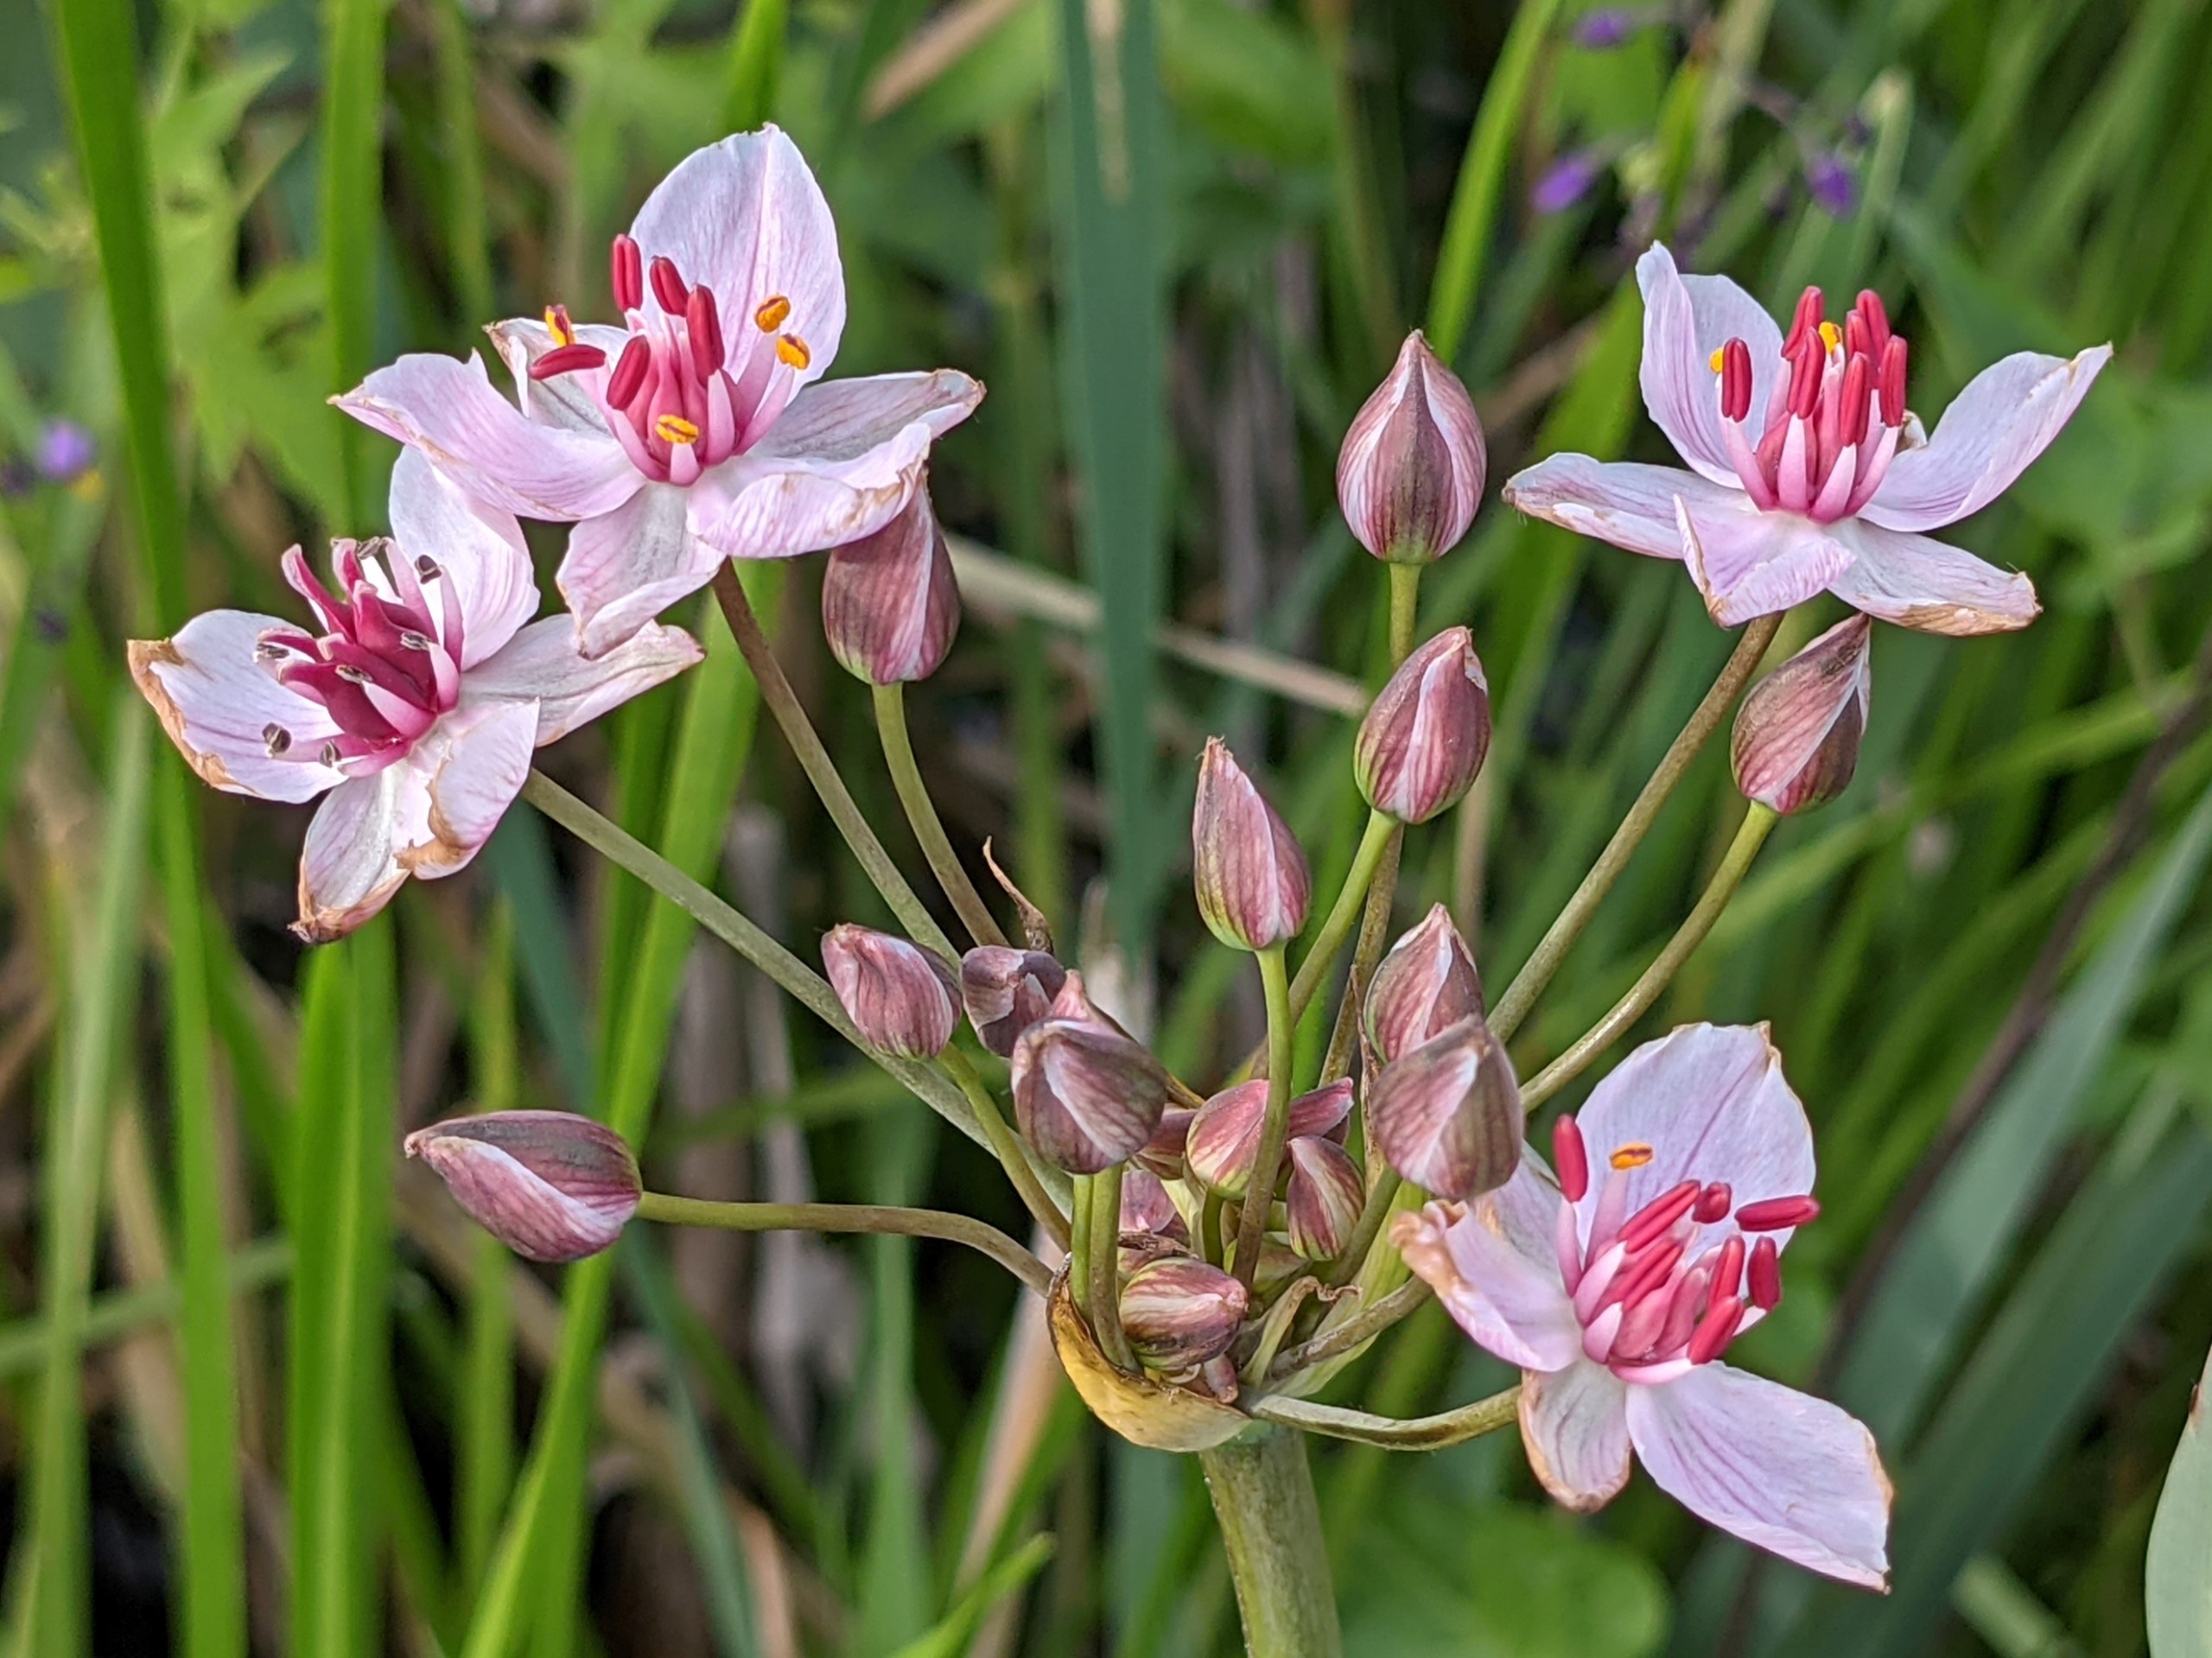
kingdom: Plantae
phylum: Tracheophyta
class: Liliopsida
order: Alismatales
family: Butomaceae
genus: Butomus
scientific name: Butomus umbellatus
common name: Brudelys
